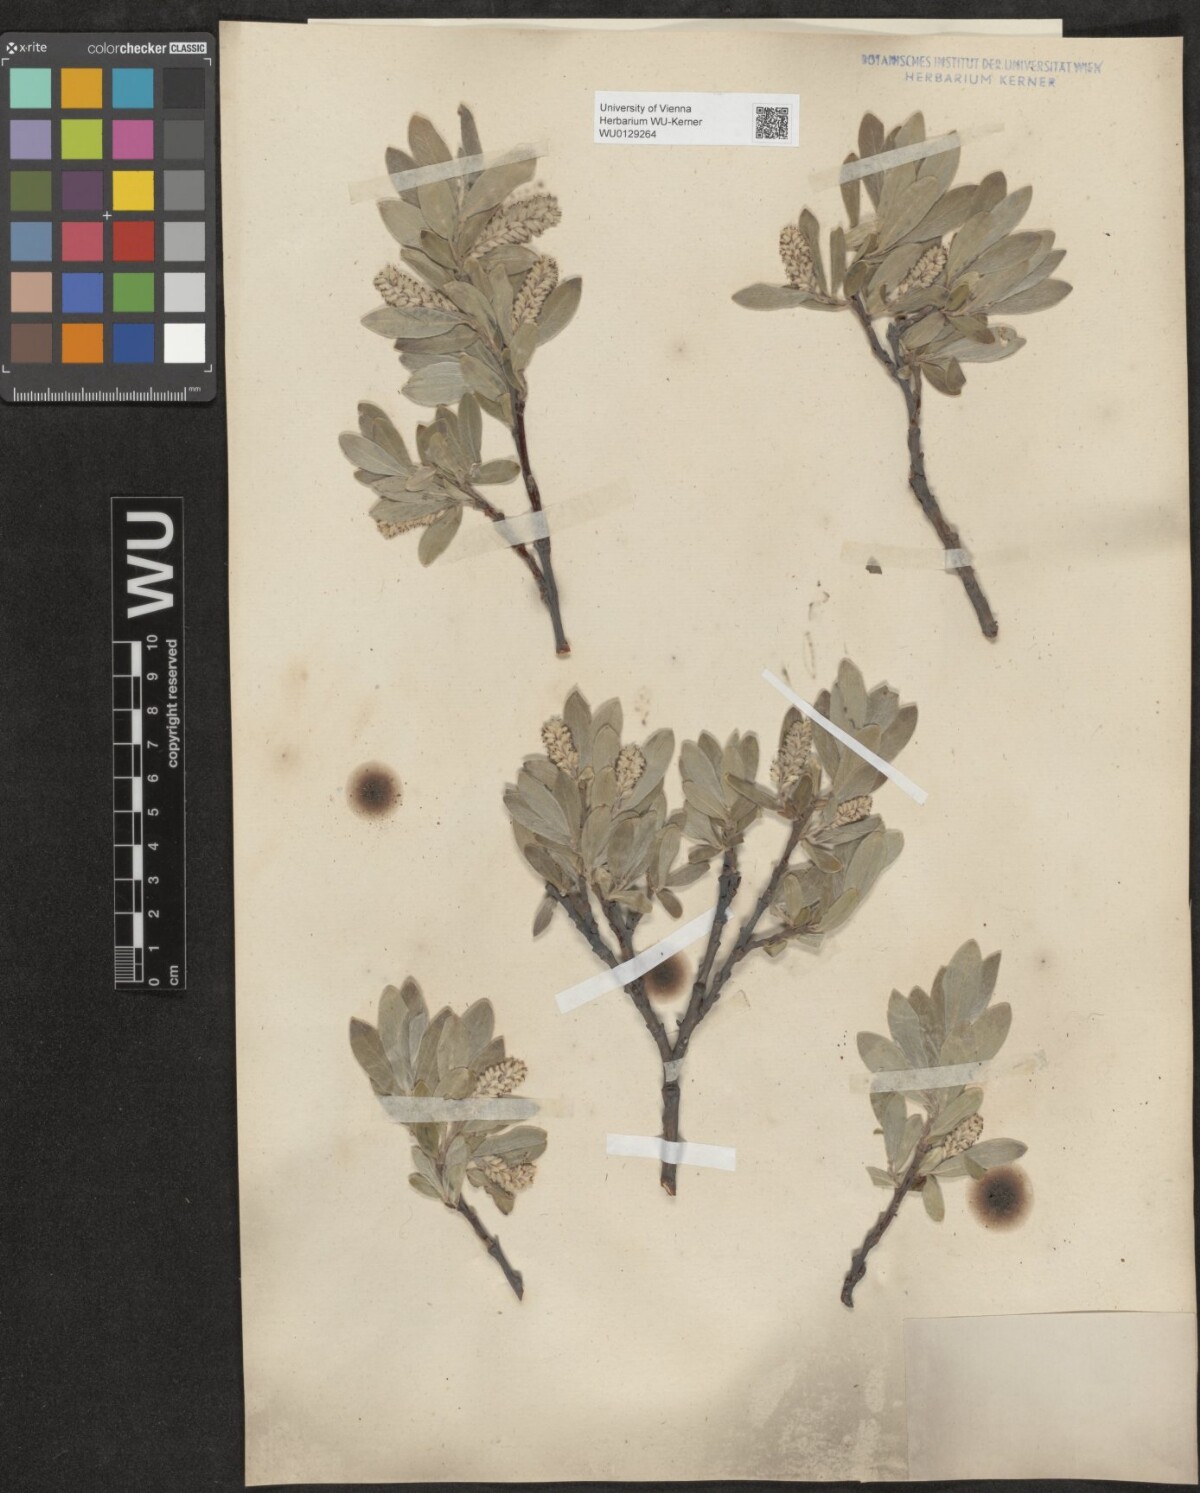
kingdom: Plantae
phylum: Tracheophyta
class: Magnoliopsida
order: Malpighiales
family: Salicaceae
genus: Salix
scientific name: Salix glauca
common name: Glaucous willow
